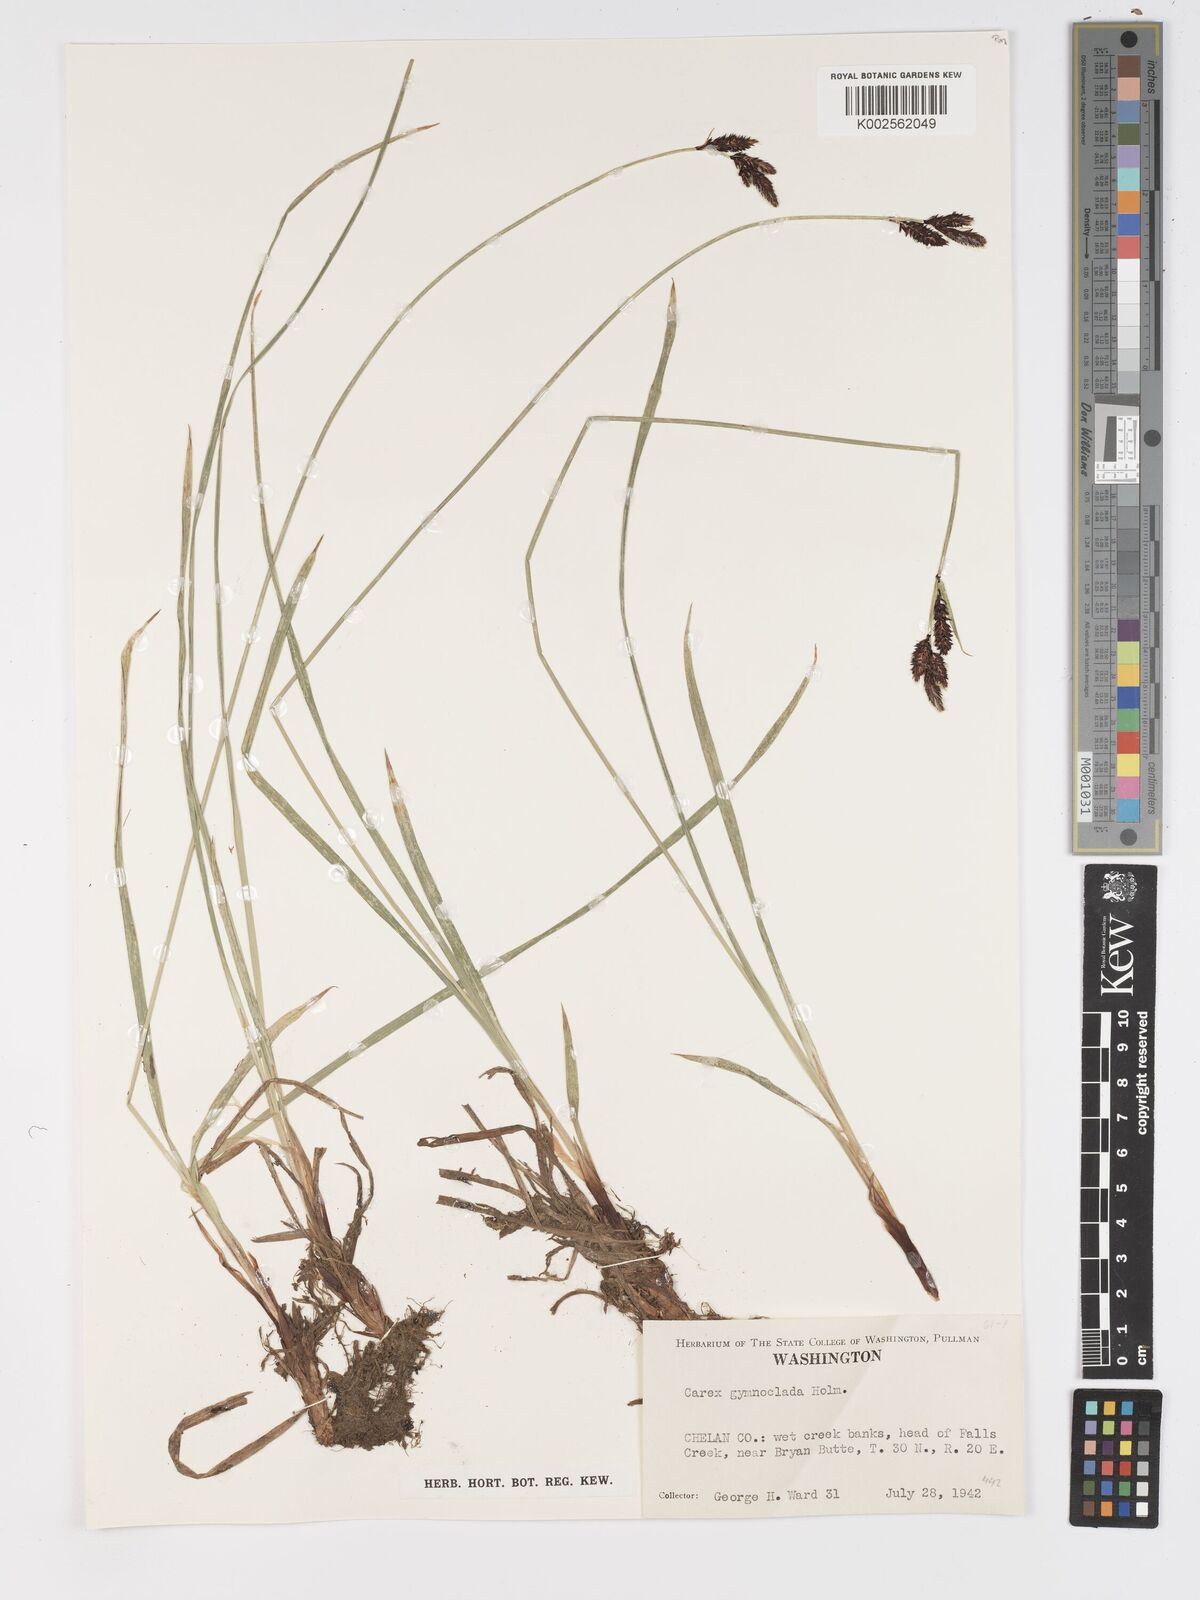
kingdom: Plantae
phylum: Tracheophyta
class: Liliopsida
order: Poales
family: Cyperaceae
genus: Carex
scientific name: Carex scopulorum
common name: Holm's rocky mountain sedge
